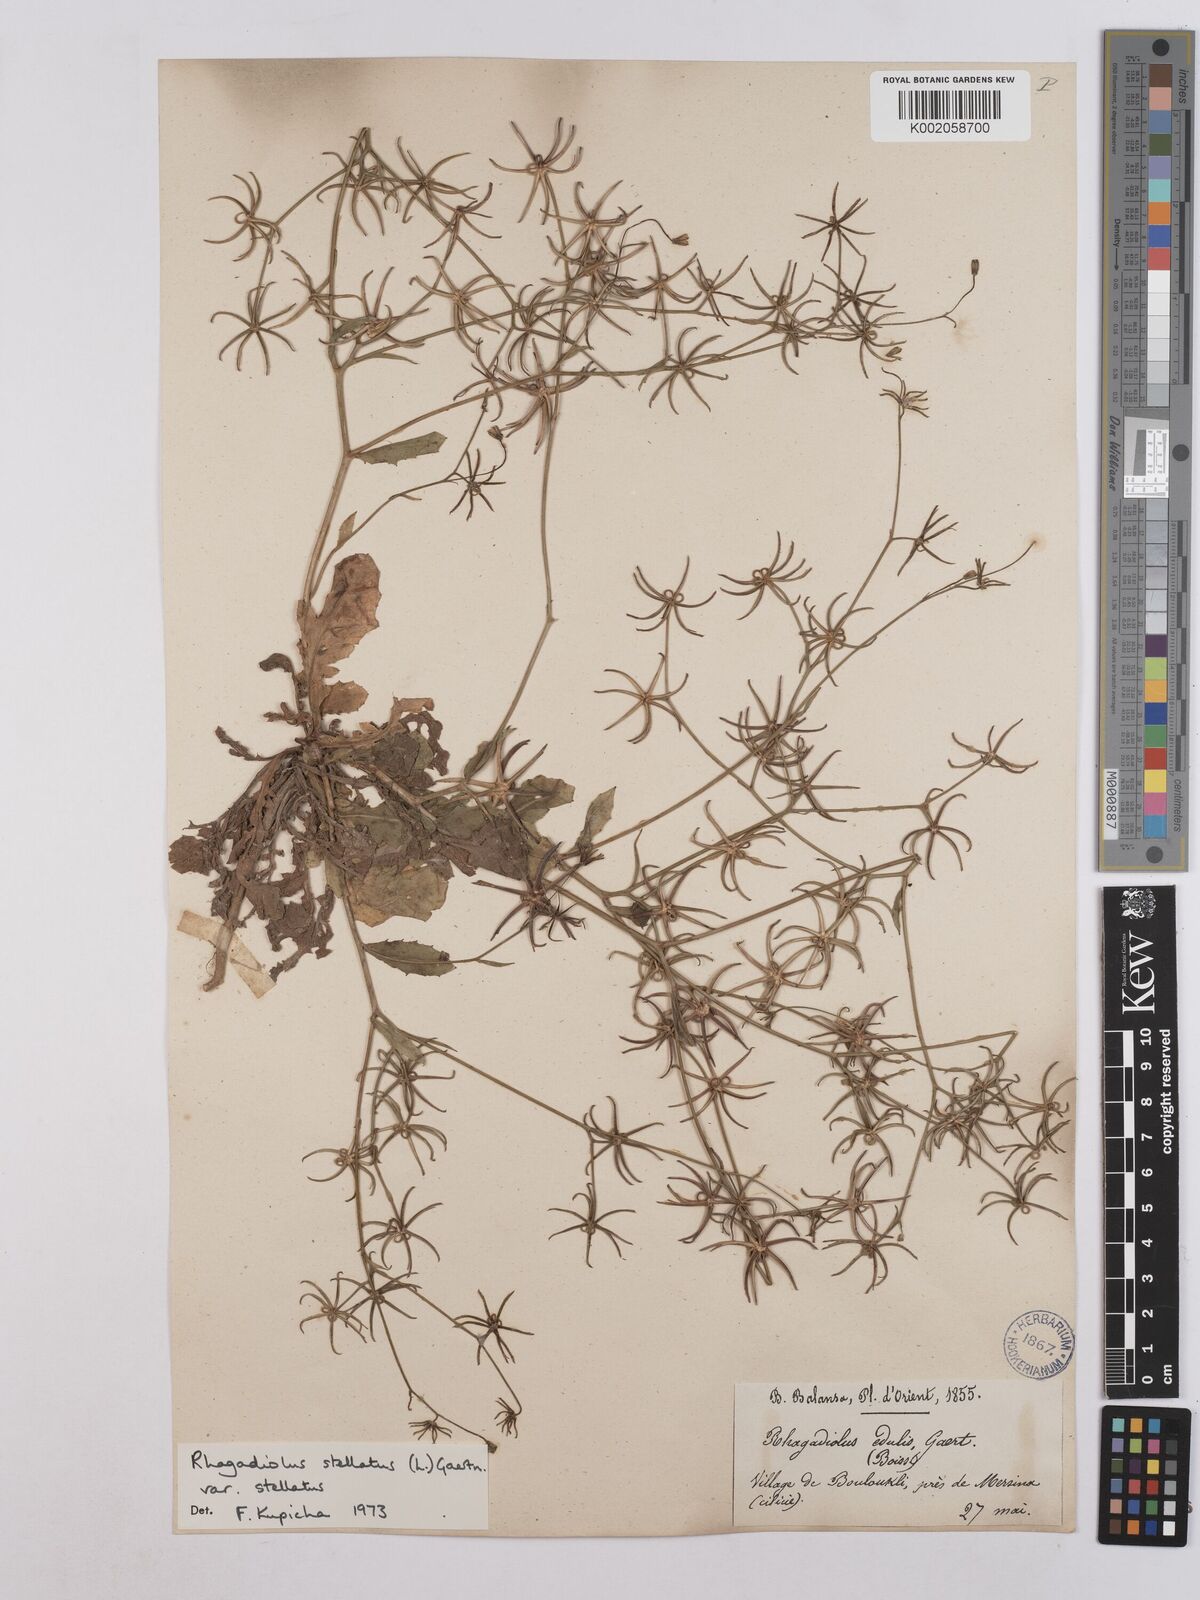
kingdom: Plantae
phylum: Tracheophyta
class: Magnoliopsida
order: Asterales
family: Asteraceae
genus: Rhagadiolus
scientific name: Rhagadiolus stellatus
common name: Star hawkbit
